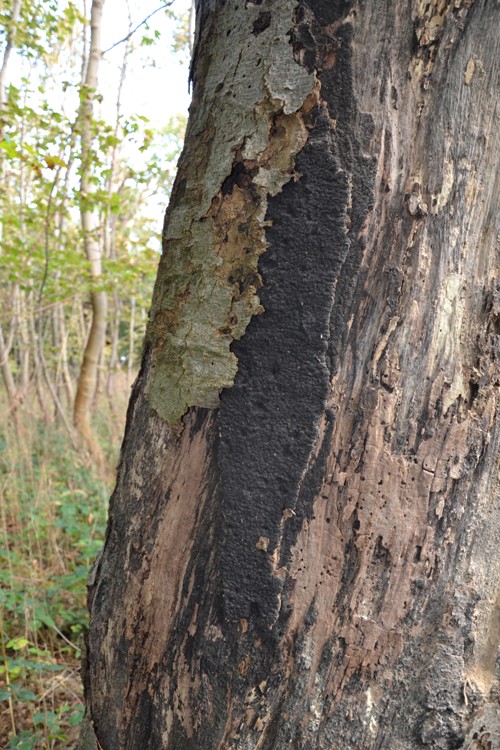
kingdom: Fungi
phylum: Ascomycota
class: Sordariomycetes
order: Xylariales
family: Diatrypaceae
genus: Eutypa
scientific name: Eutypa spinosa
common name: grov kulskorpe
